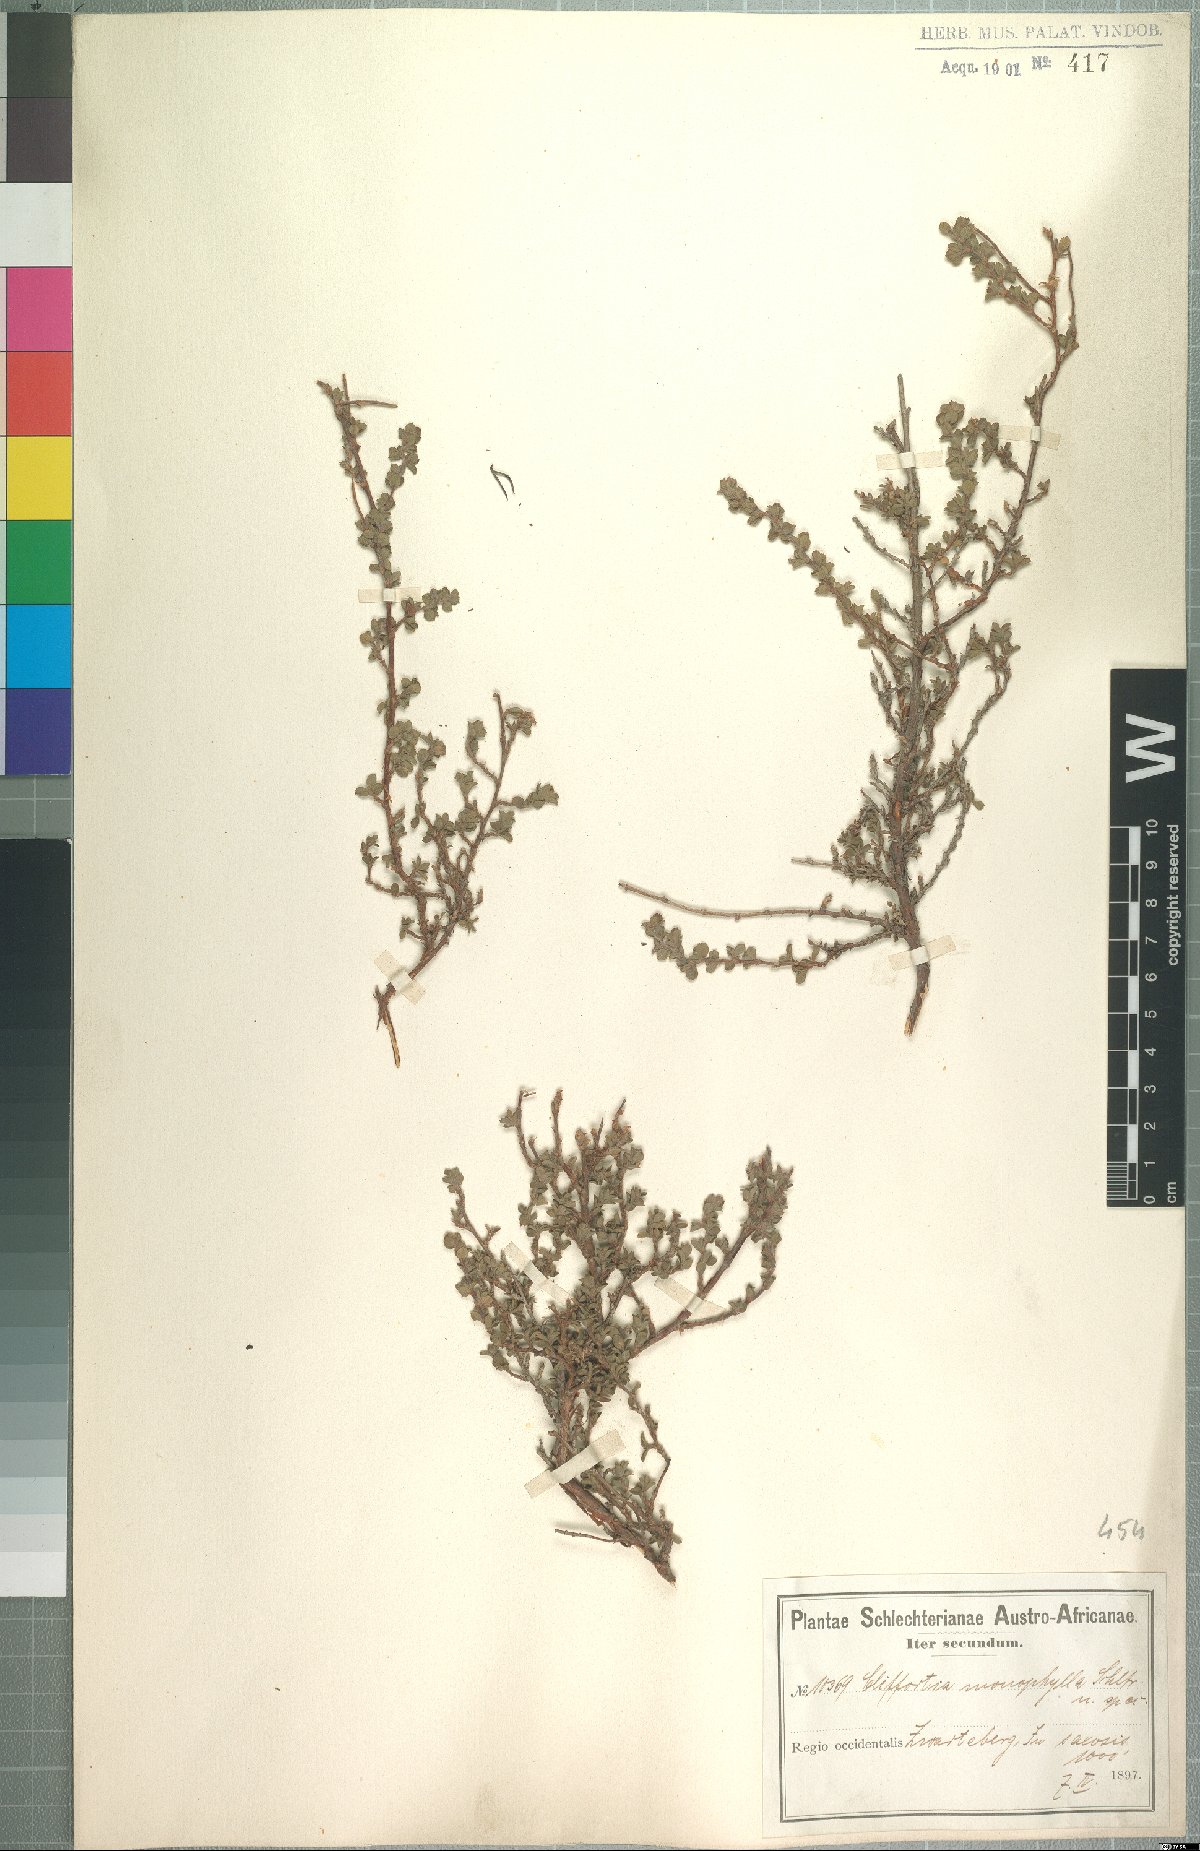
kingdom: Plantae
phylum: Tracheophyta
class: Magnoliopsida
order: Rosales
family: Rosaceae
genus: Cliffortia
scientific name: Cliffortia monophylla
